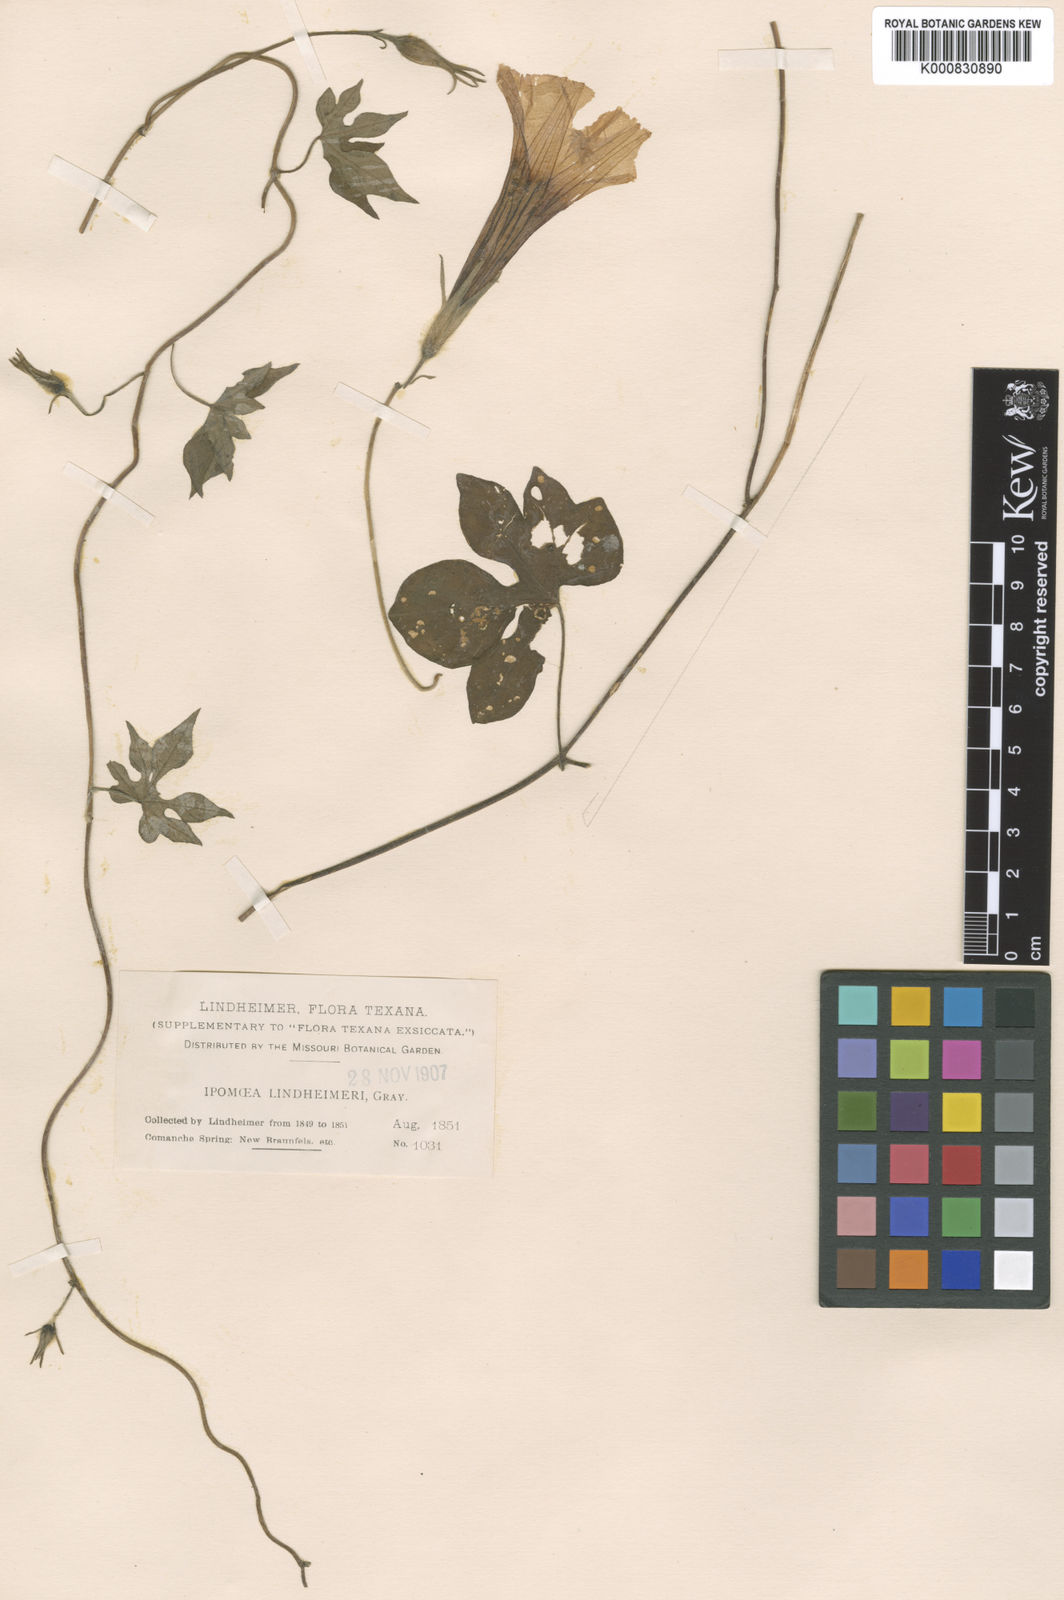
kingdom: Plantae
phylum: Tracheophyta
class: Magnoliopsida
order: Solanales
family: Convolvulaceae
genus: Ipomoea
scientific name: Ipomoea lindheimeri
